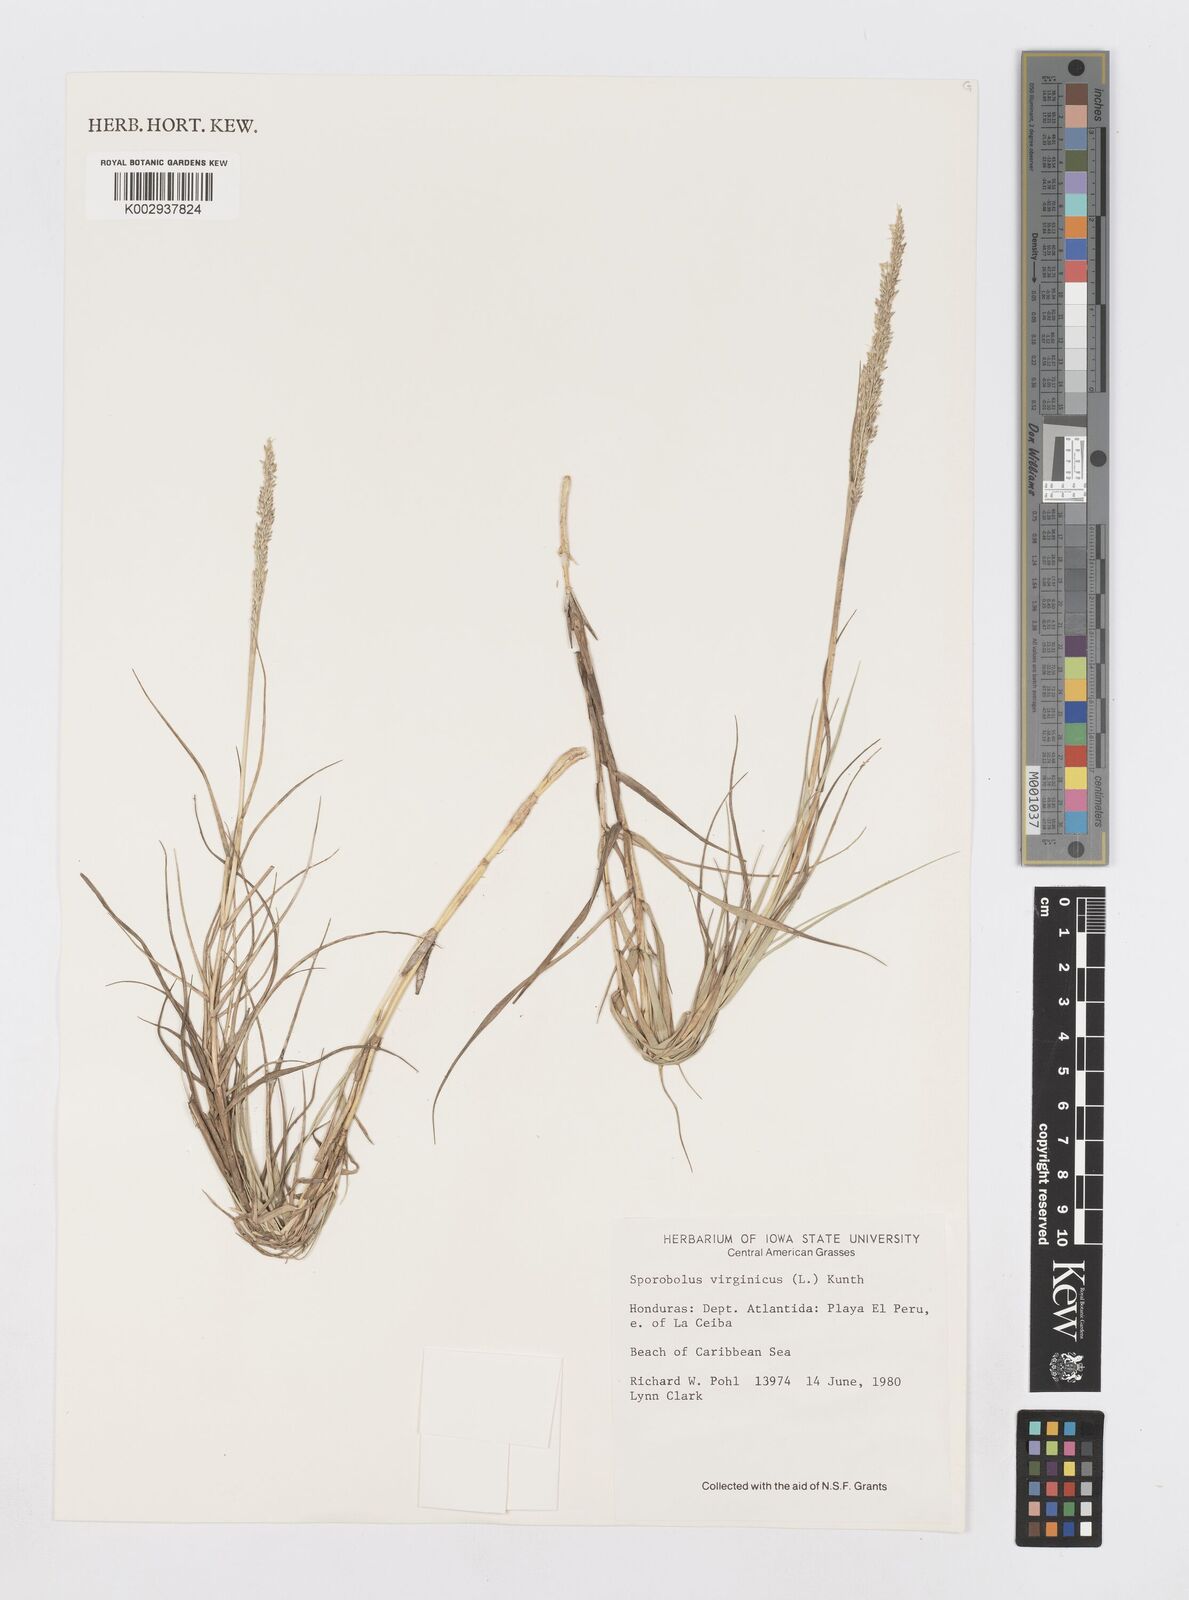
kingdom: Plantae
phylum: Tracheophyta
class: Liliopsida
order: Poales
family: Poaceae
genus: Sporobolus
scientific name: Sporobolus virginicus
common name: Beach dropseed
